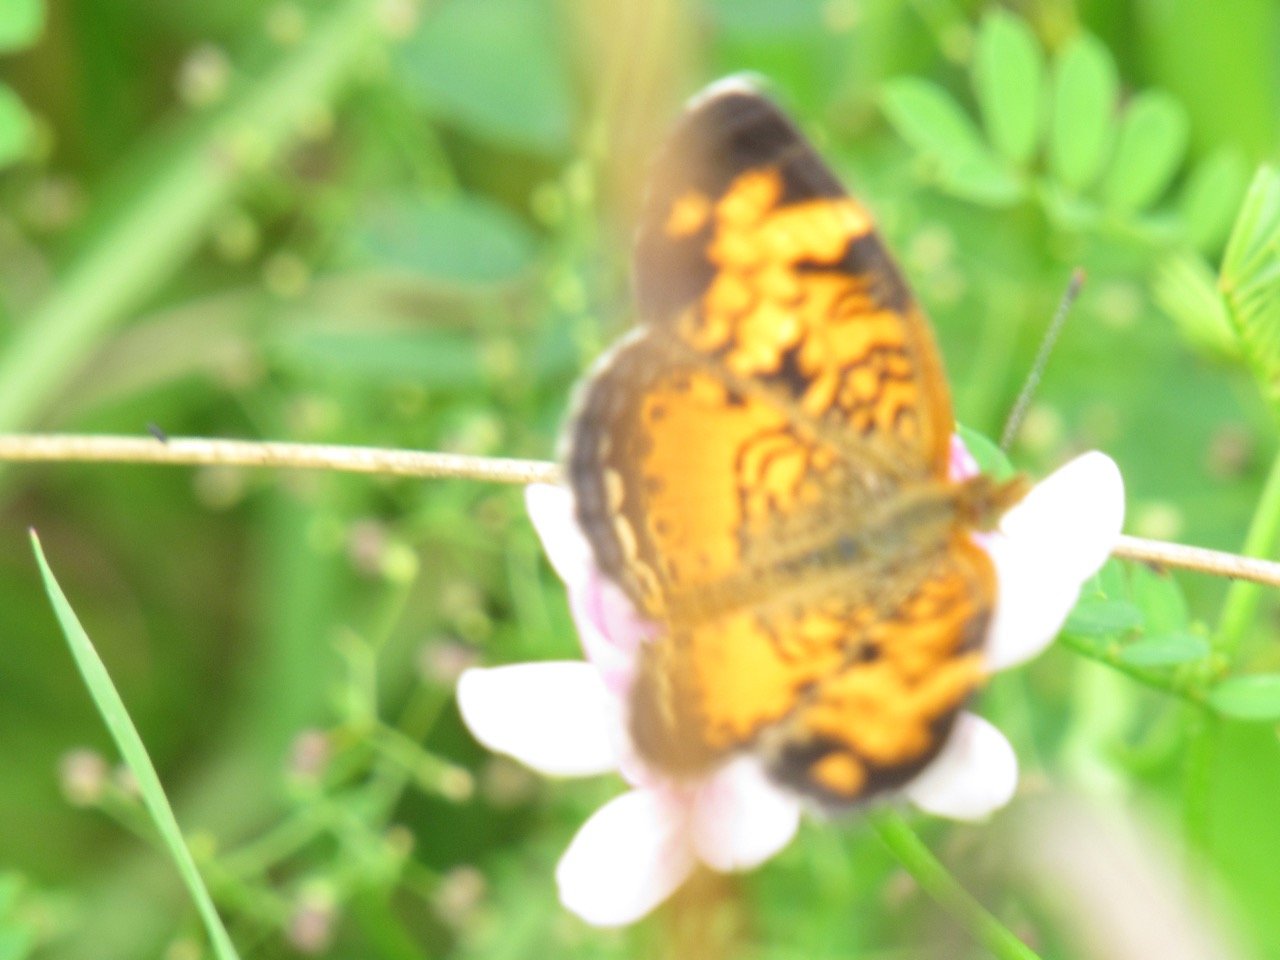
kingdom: Animalia
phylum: Arthropoda
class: Insecta
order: Lepidoptera
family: Nymphalidae
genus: Phyciodes
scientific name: Phyciodes
